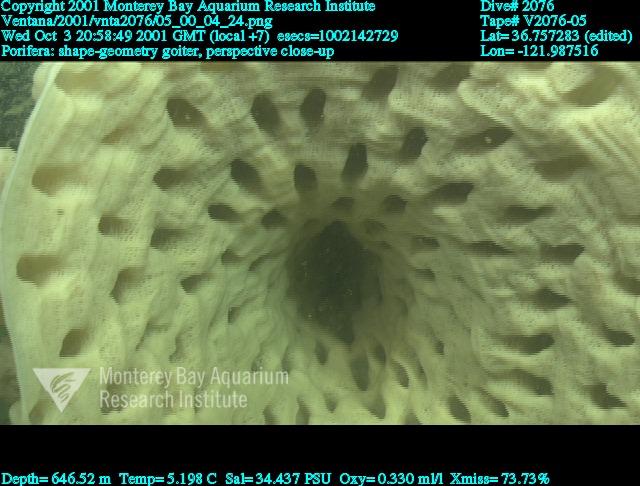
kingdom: Animalia
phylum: Porifera
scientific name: Porifera
